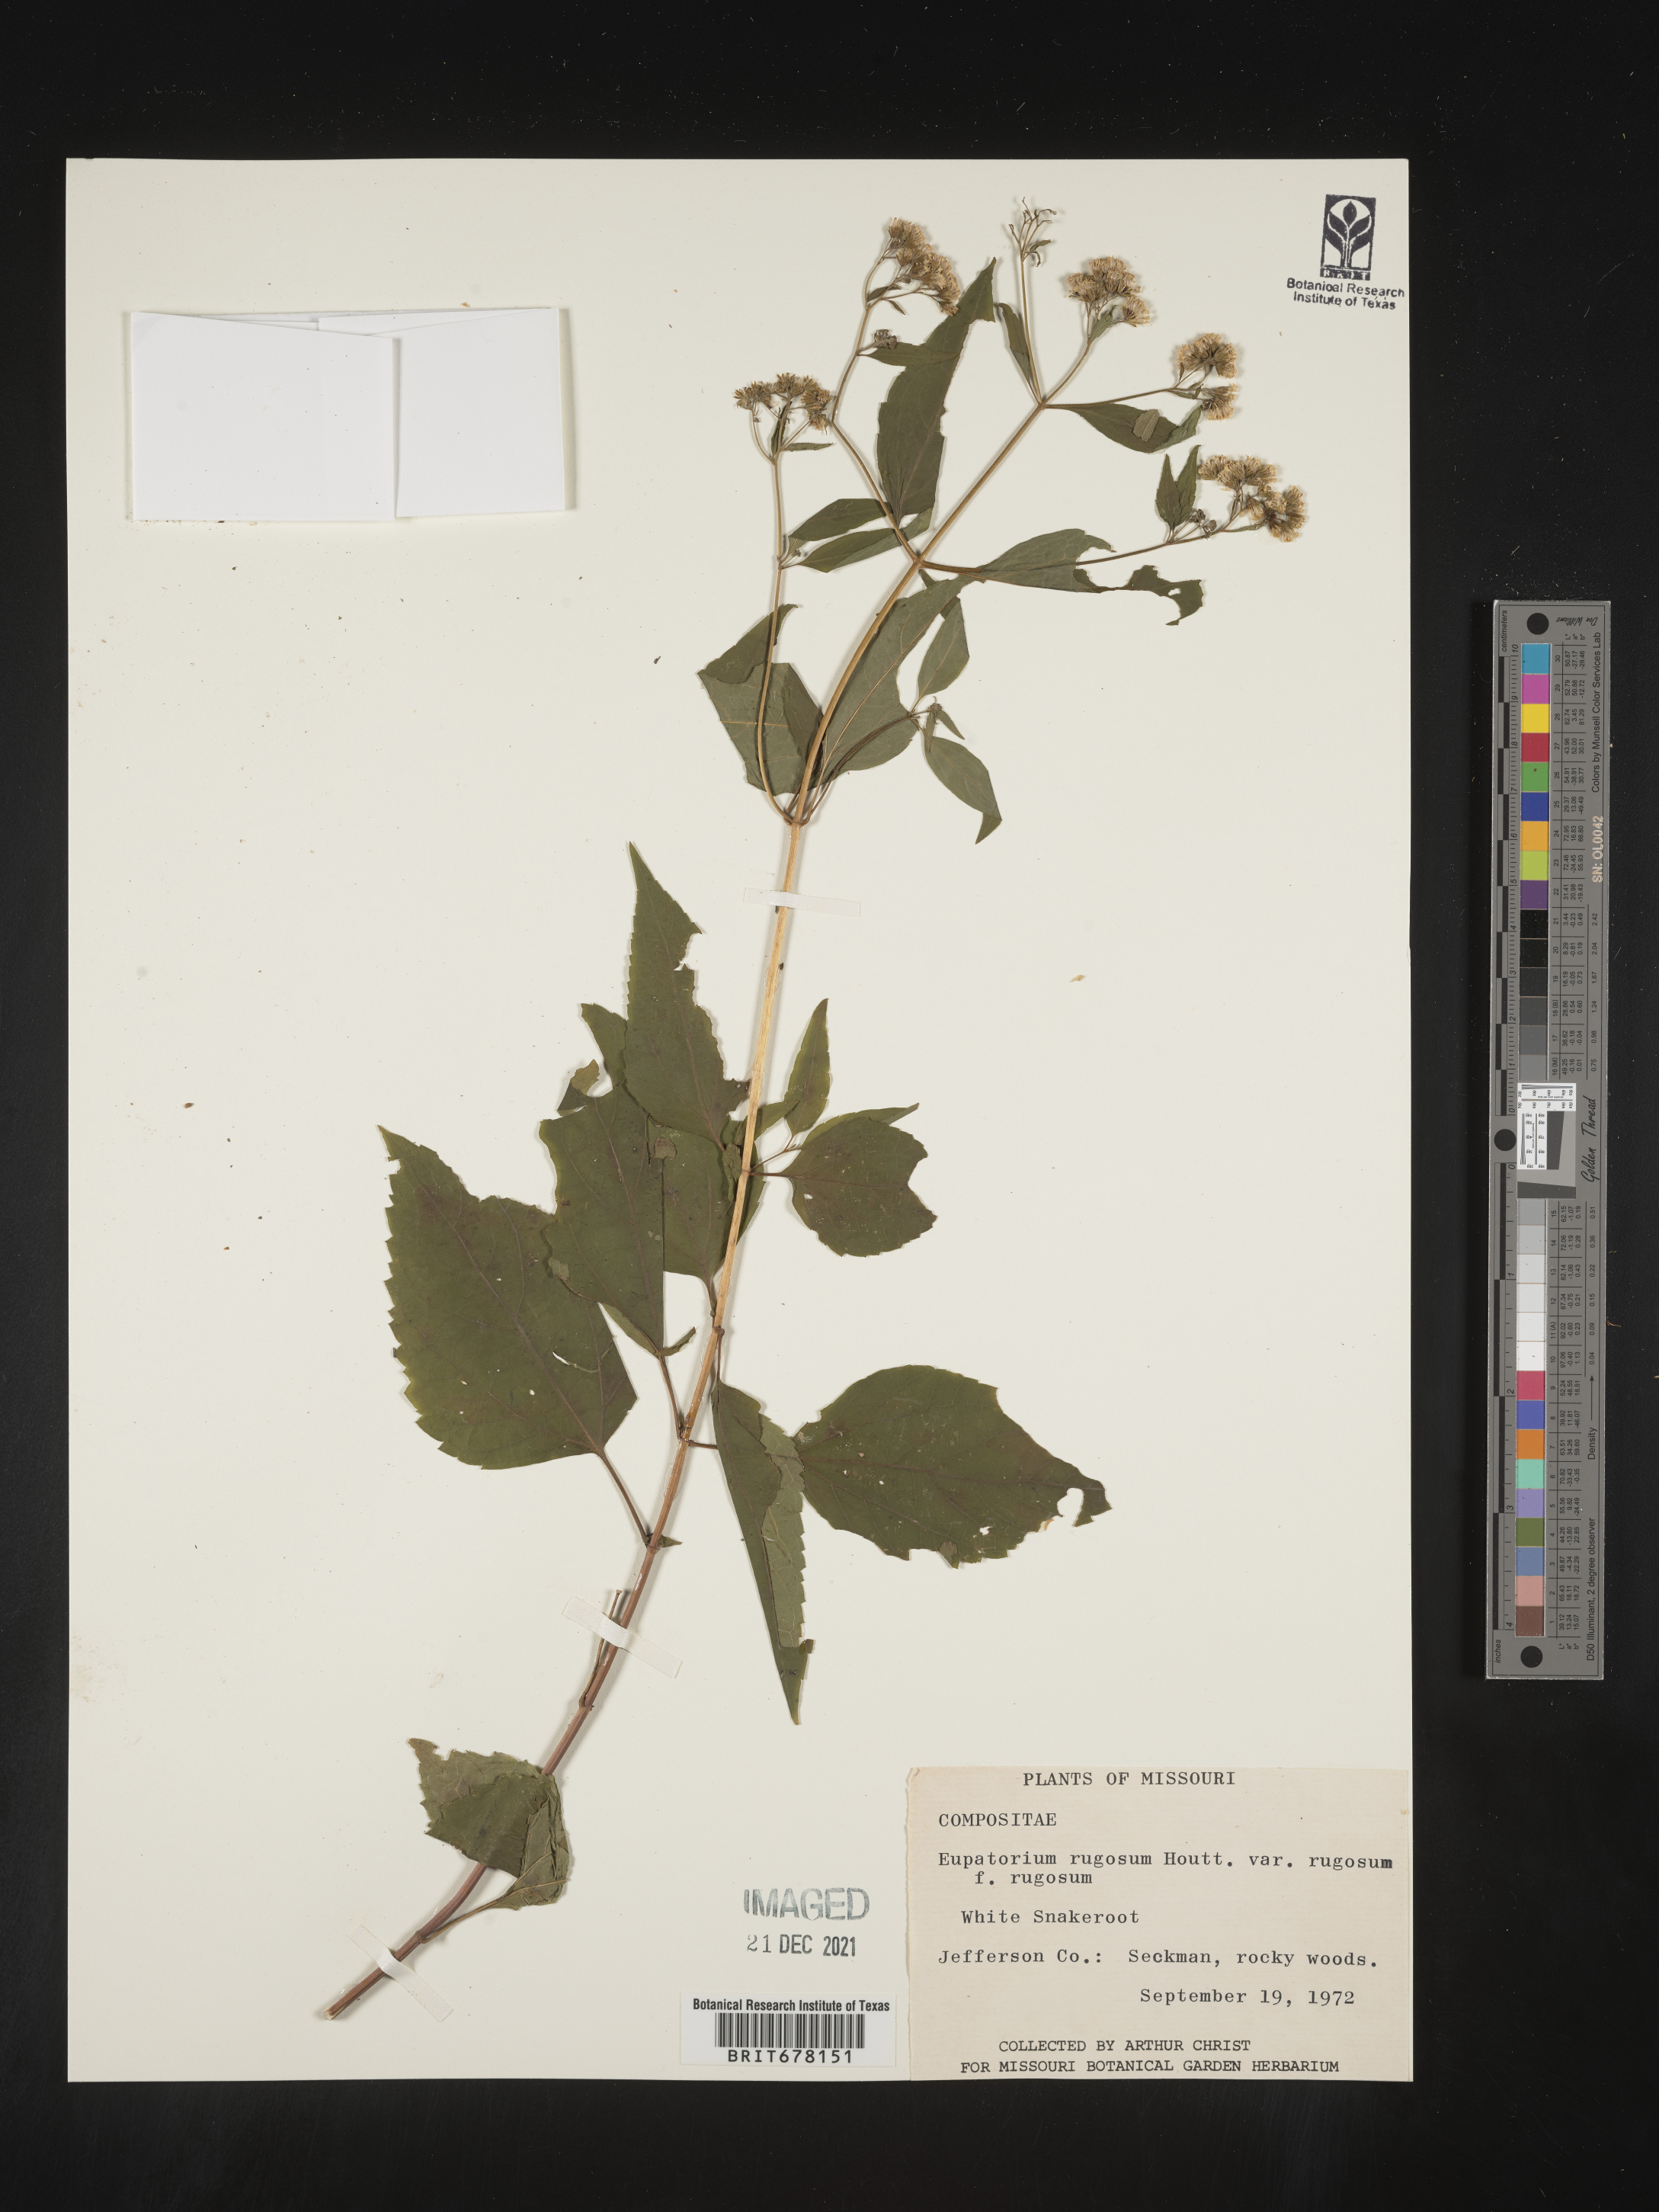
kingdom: Plantae
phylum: Tracheophyta
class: Magnoliopsida
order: Asterales
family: Asteraceae
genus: Ageratina
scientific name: Ageratina altissima
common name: White snakeroot
